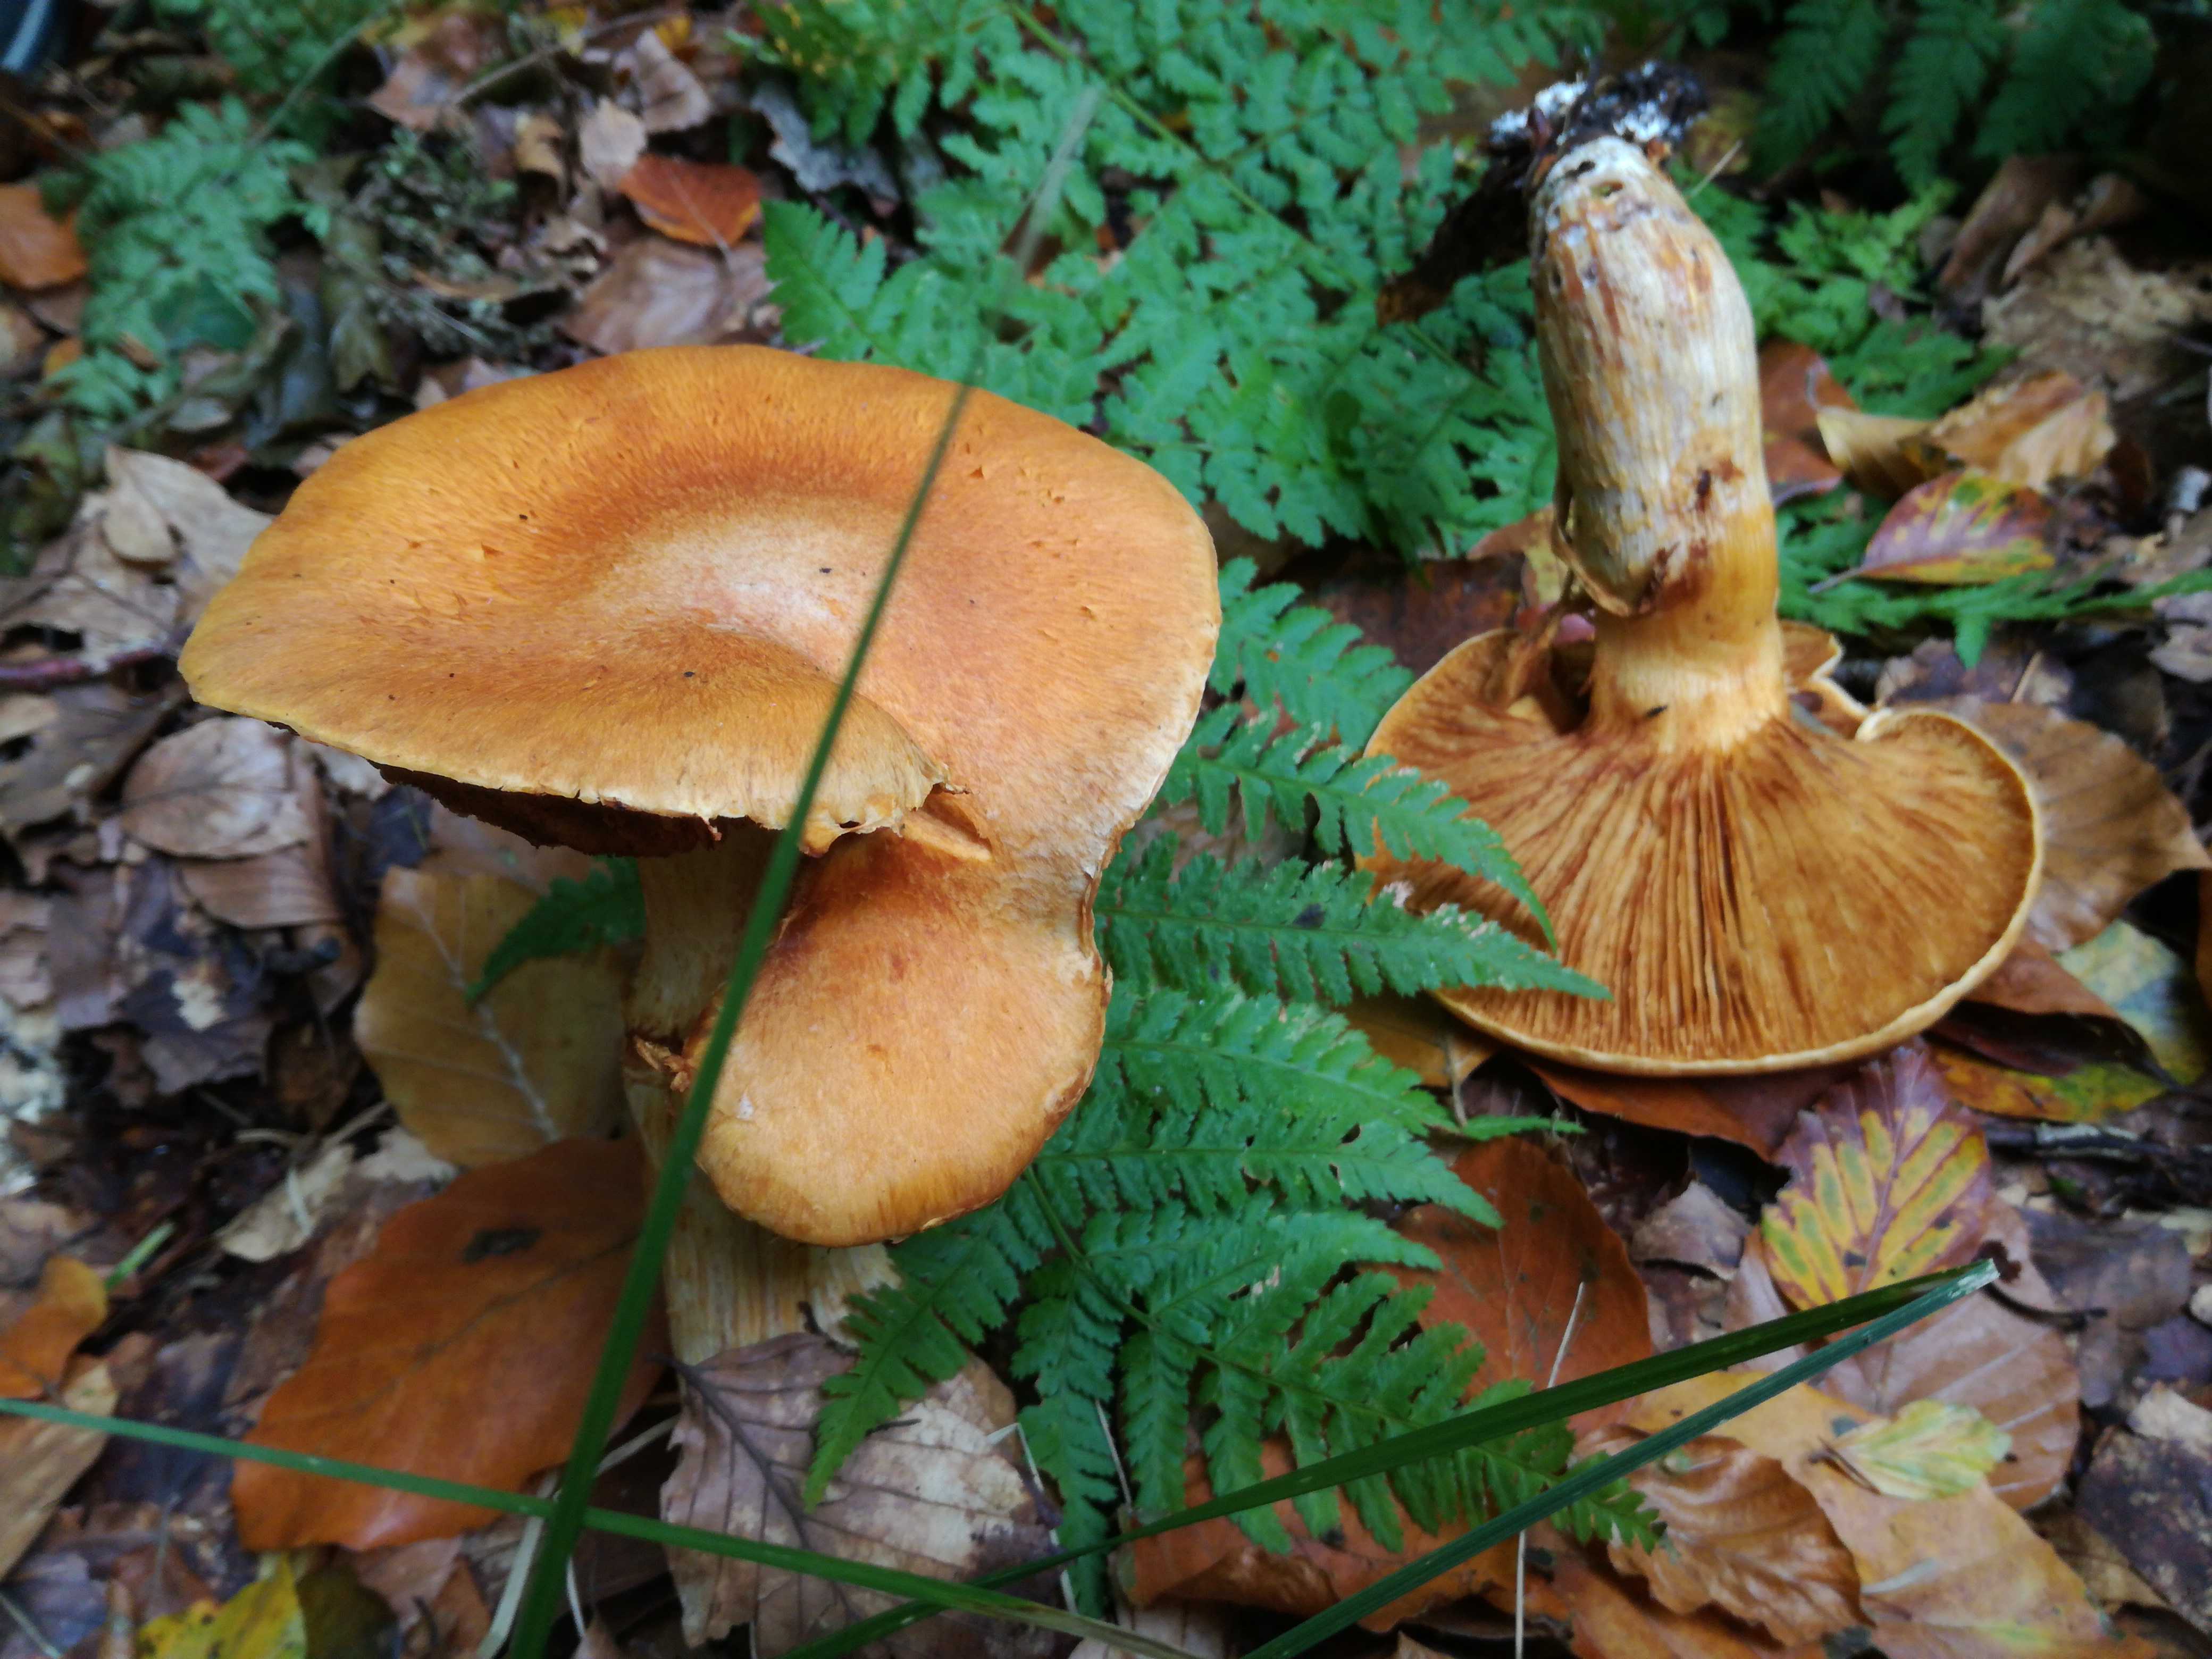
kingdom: Fungi
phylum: Basidiomycota
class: Agaricomycetes
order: Agaricales
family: Hymenogastraceae
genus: Gymnopilus
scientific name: Gymnopilus spectabilis
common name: fibret flammehat
